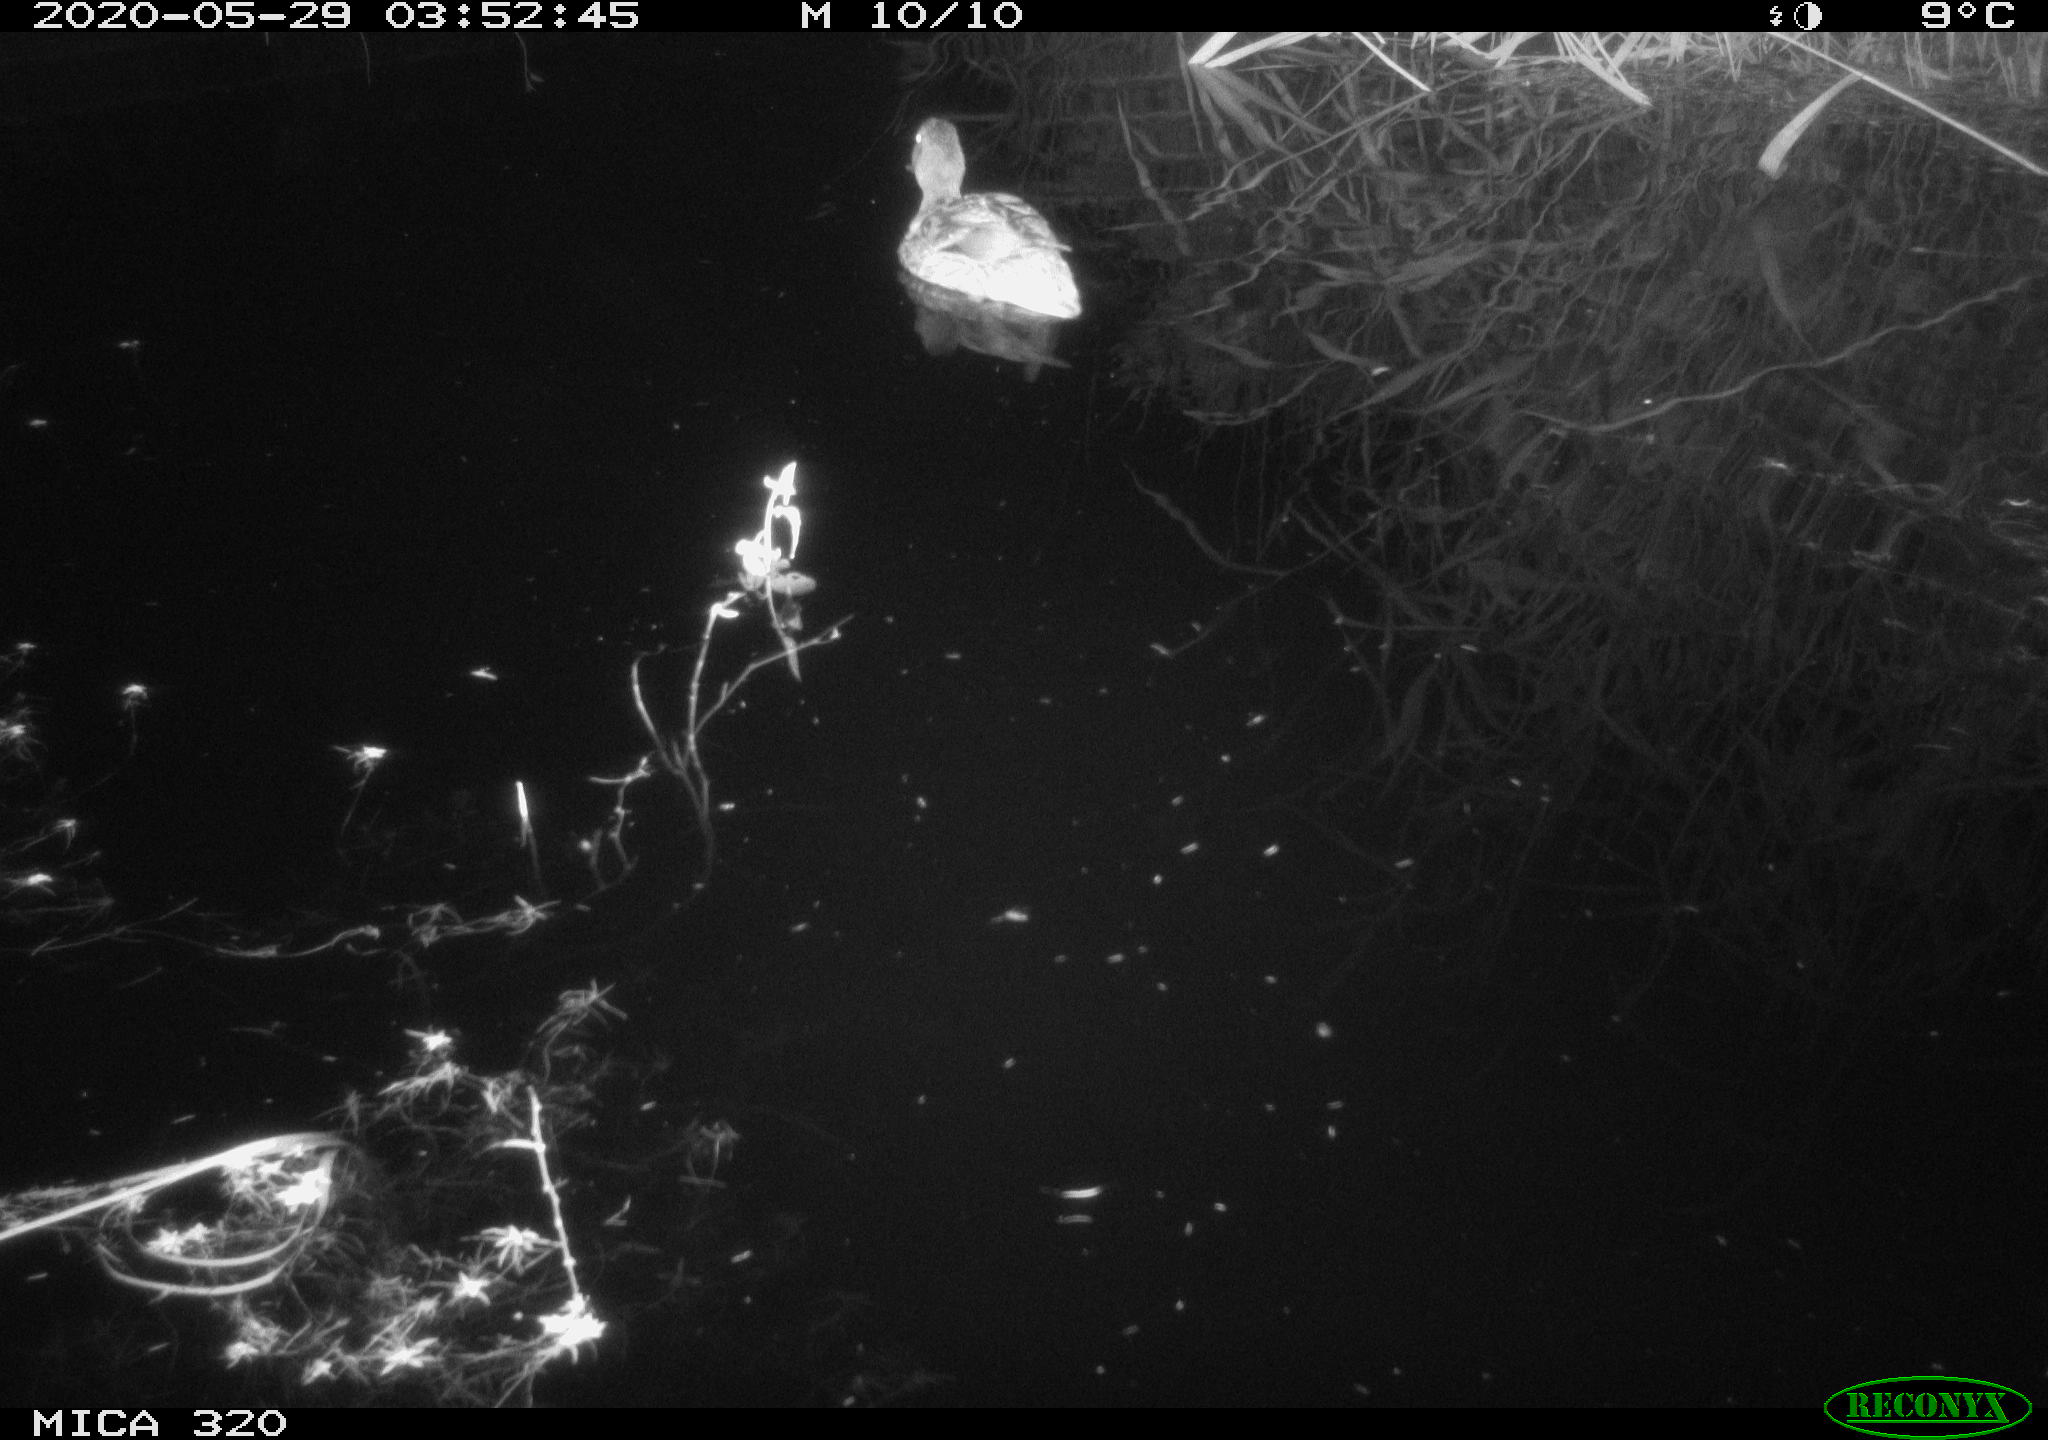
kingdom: Animalia
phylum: Chordata
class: Aves
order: Anseriformes
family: Anatidae
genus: Anas
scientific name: Anas platyrhynchos
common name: Mallard
